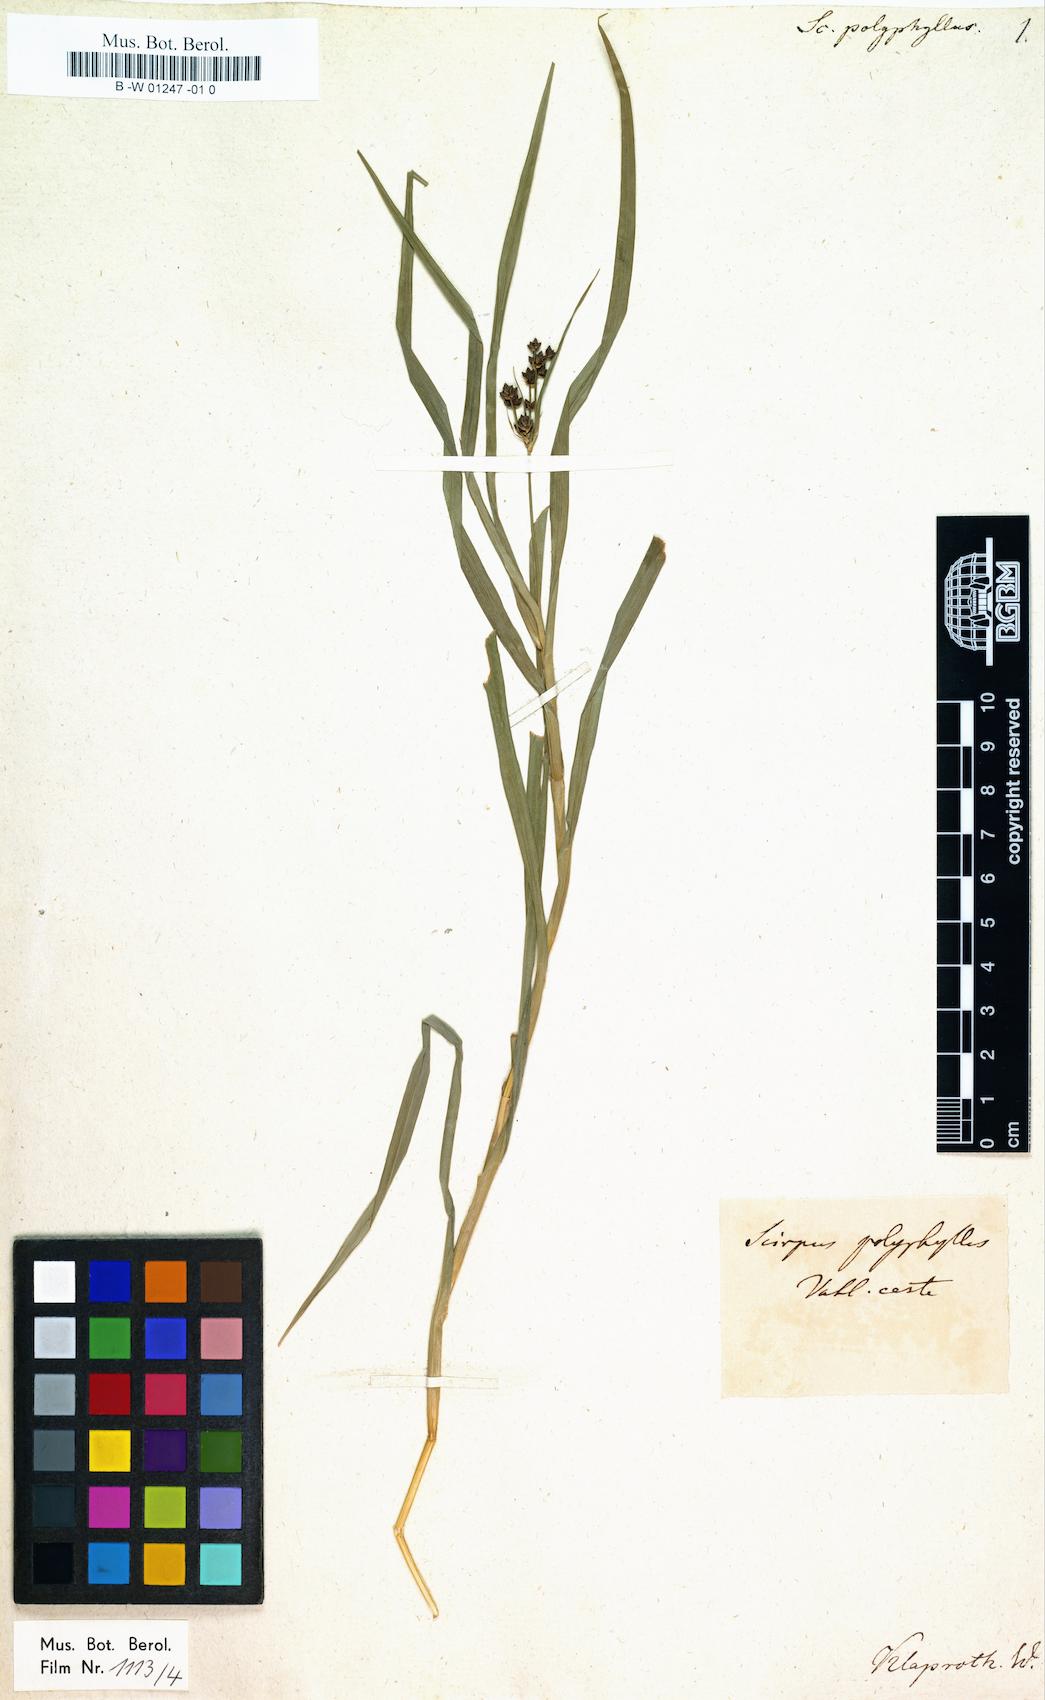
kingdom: Plantae
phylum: Tracheophyta
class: Liliopsida
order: Poales
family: Cyperaceae
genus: Scirpus
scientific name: Scirpus polyphyllus
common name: Leafy bulrush
